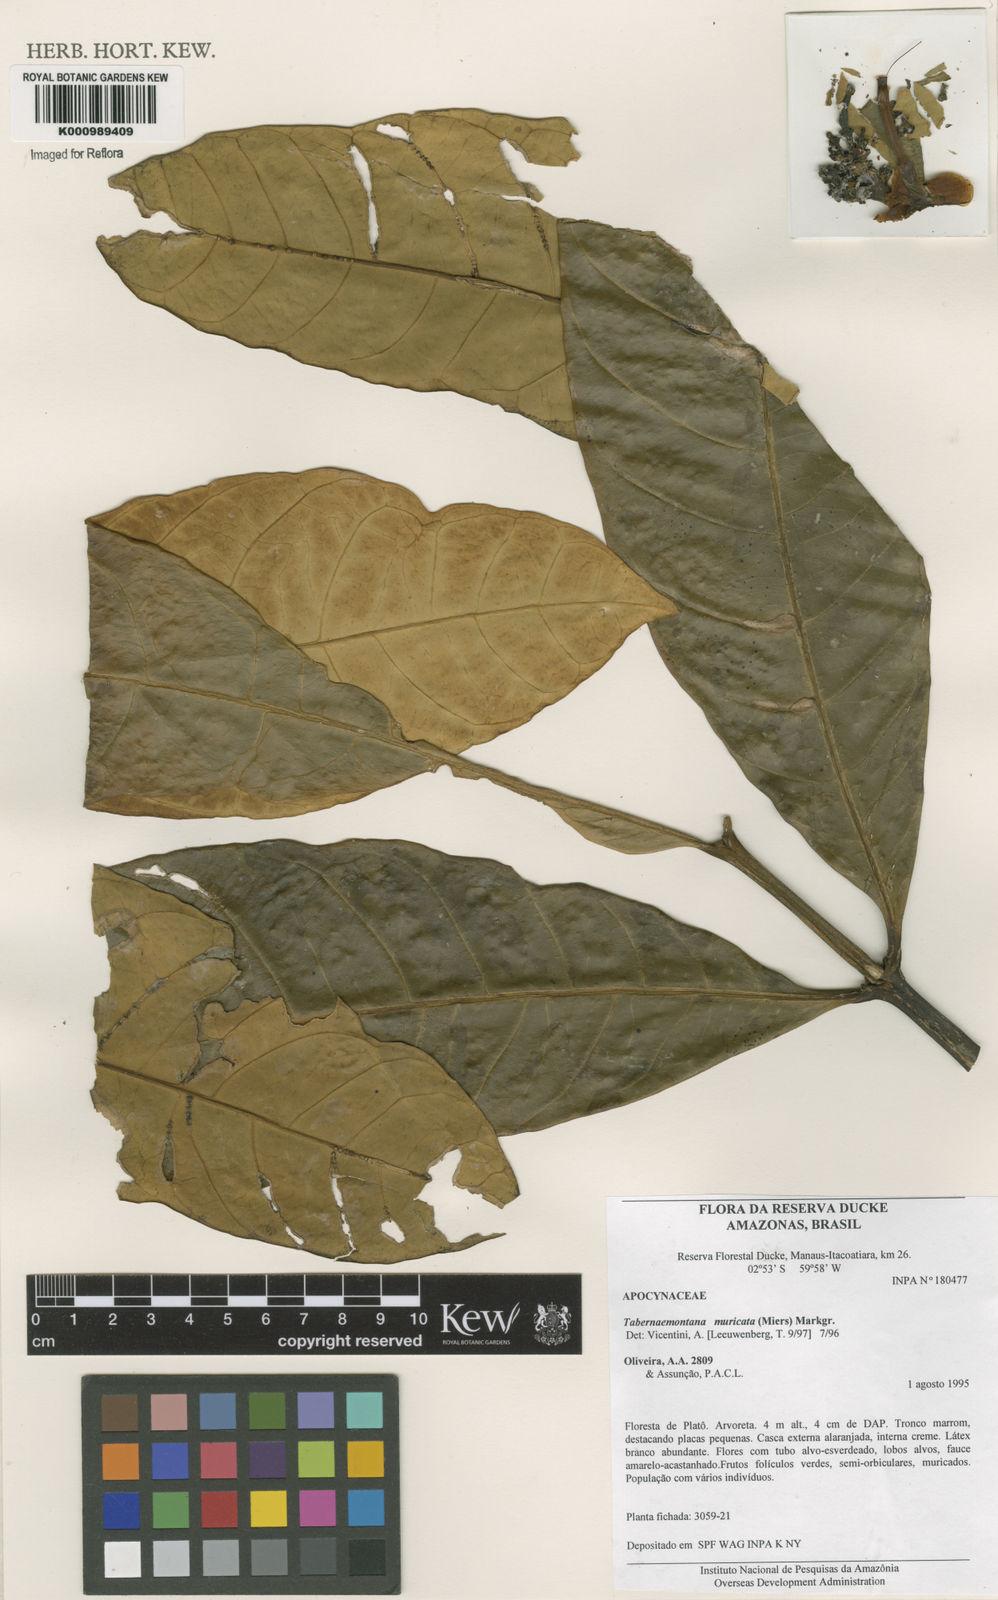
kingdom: Plantae
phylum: Tracheophyta
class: Magnoliopsida
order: Gentianales
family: Apocynaceae
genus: Tabernaemontana
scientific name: Tabernaemontana muricata
